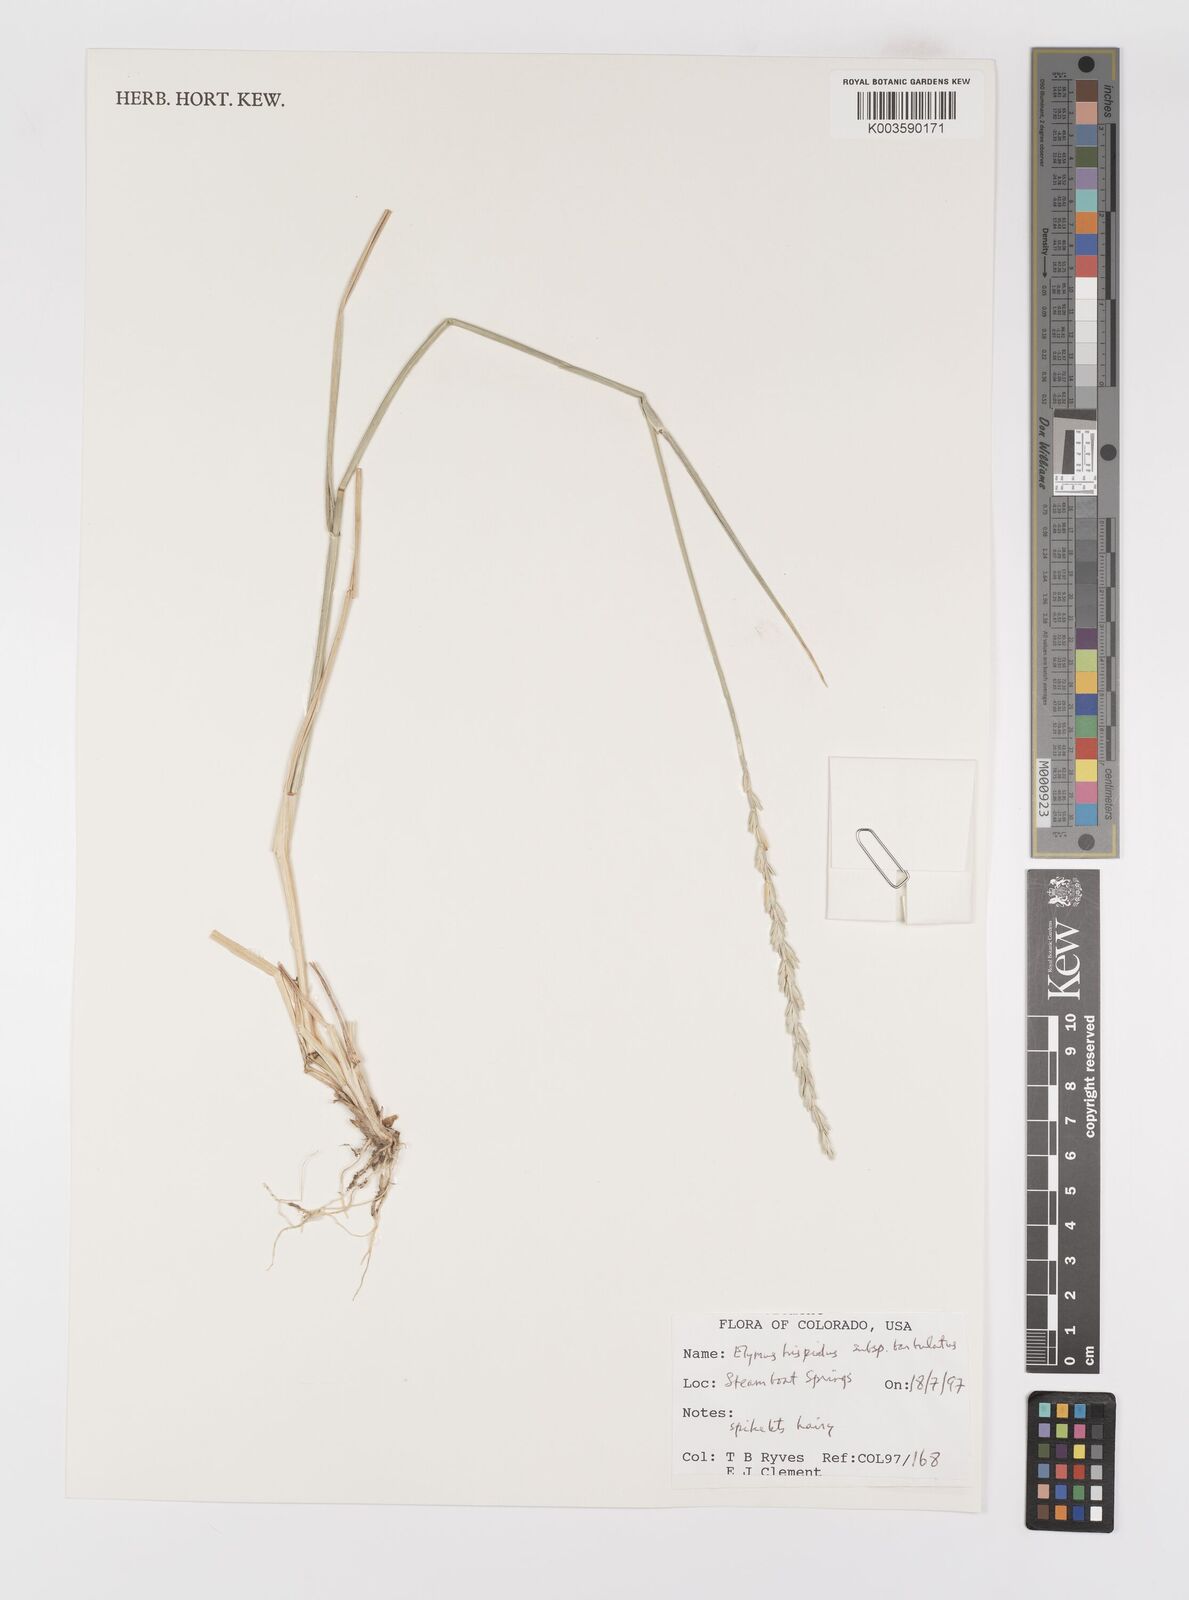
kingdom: Plantae
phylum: Tracheophyta
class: Liliopsida
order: Poales
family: Poaceae
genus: Thinopyrum
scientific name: Thinopyrum intermedium
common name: Intermediate wheatgrass
